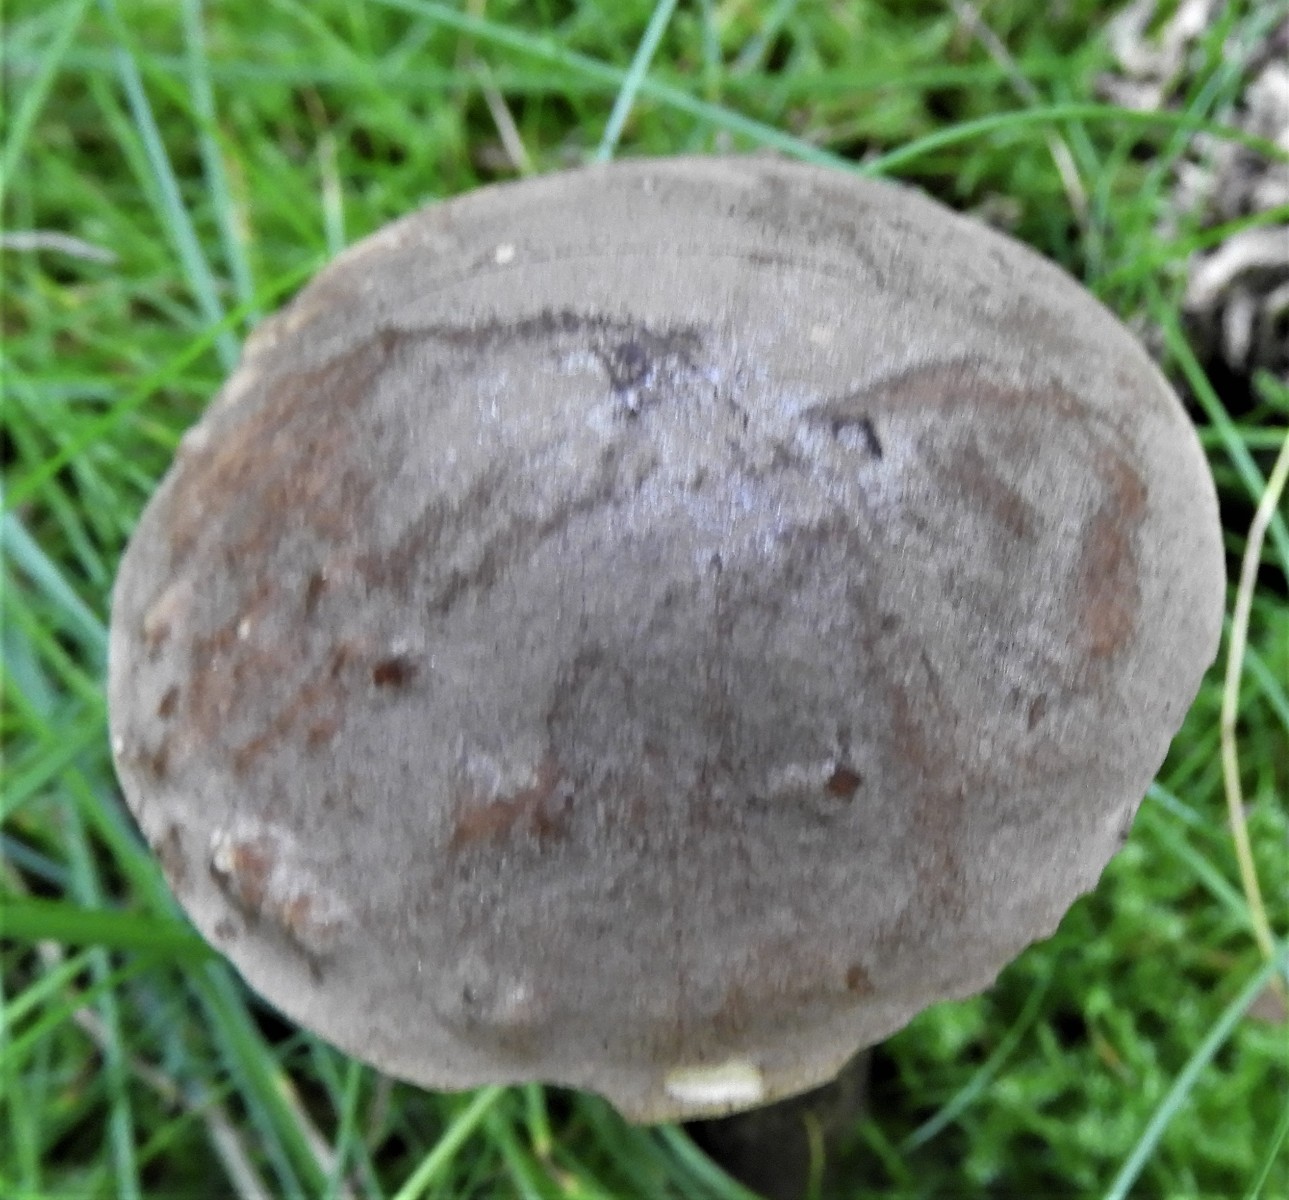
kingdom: Fungi
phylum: Basidiomycota
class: Agaricomycetes
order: Boletales
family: Boletaceae
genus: Leccinum
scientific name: Leccinum scabrum
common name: brun skælrørhat
